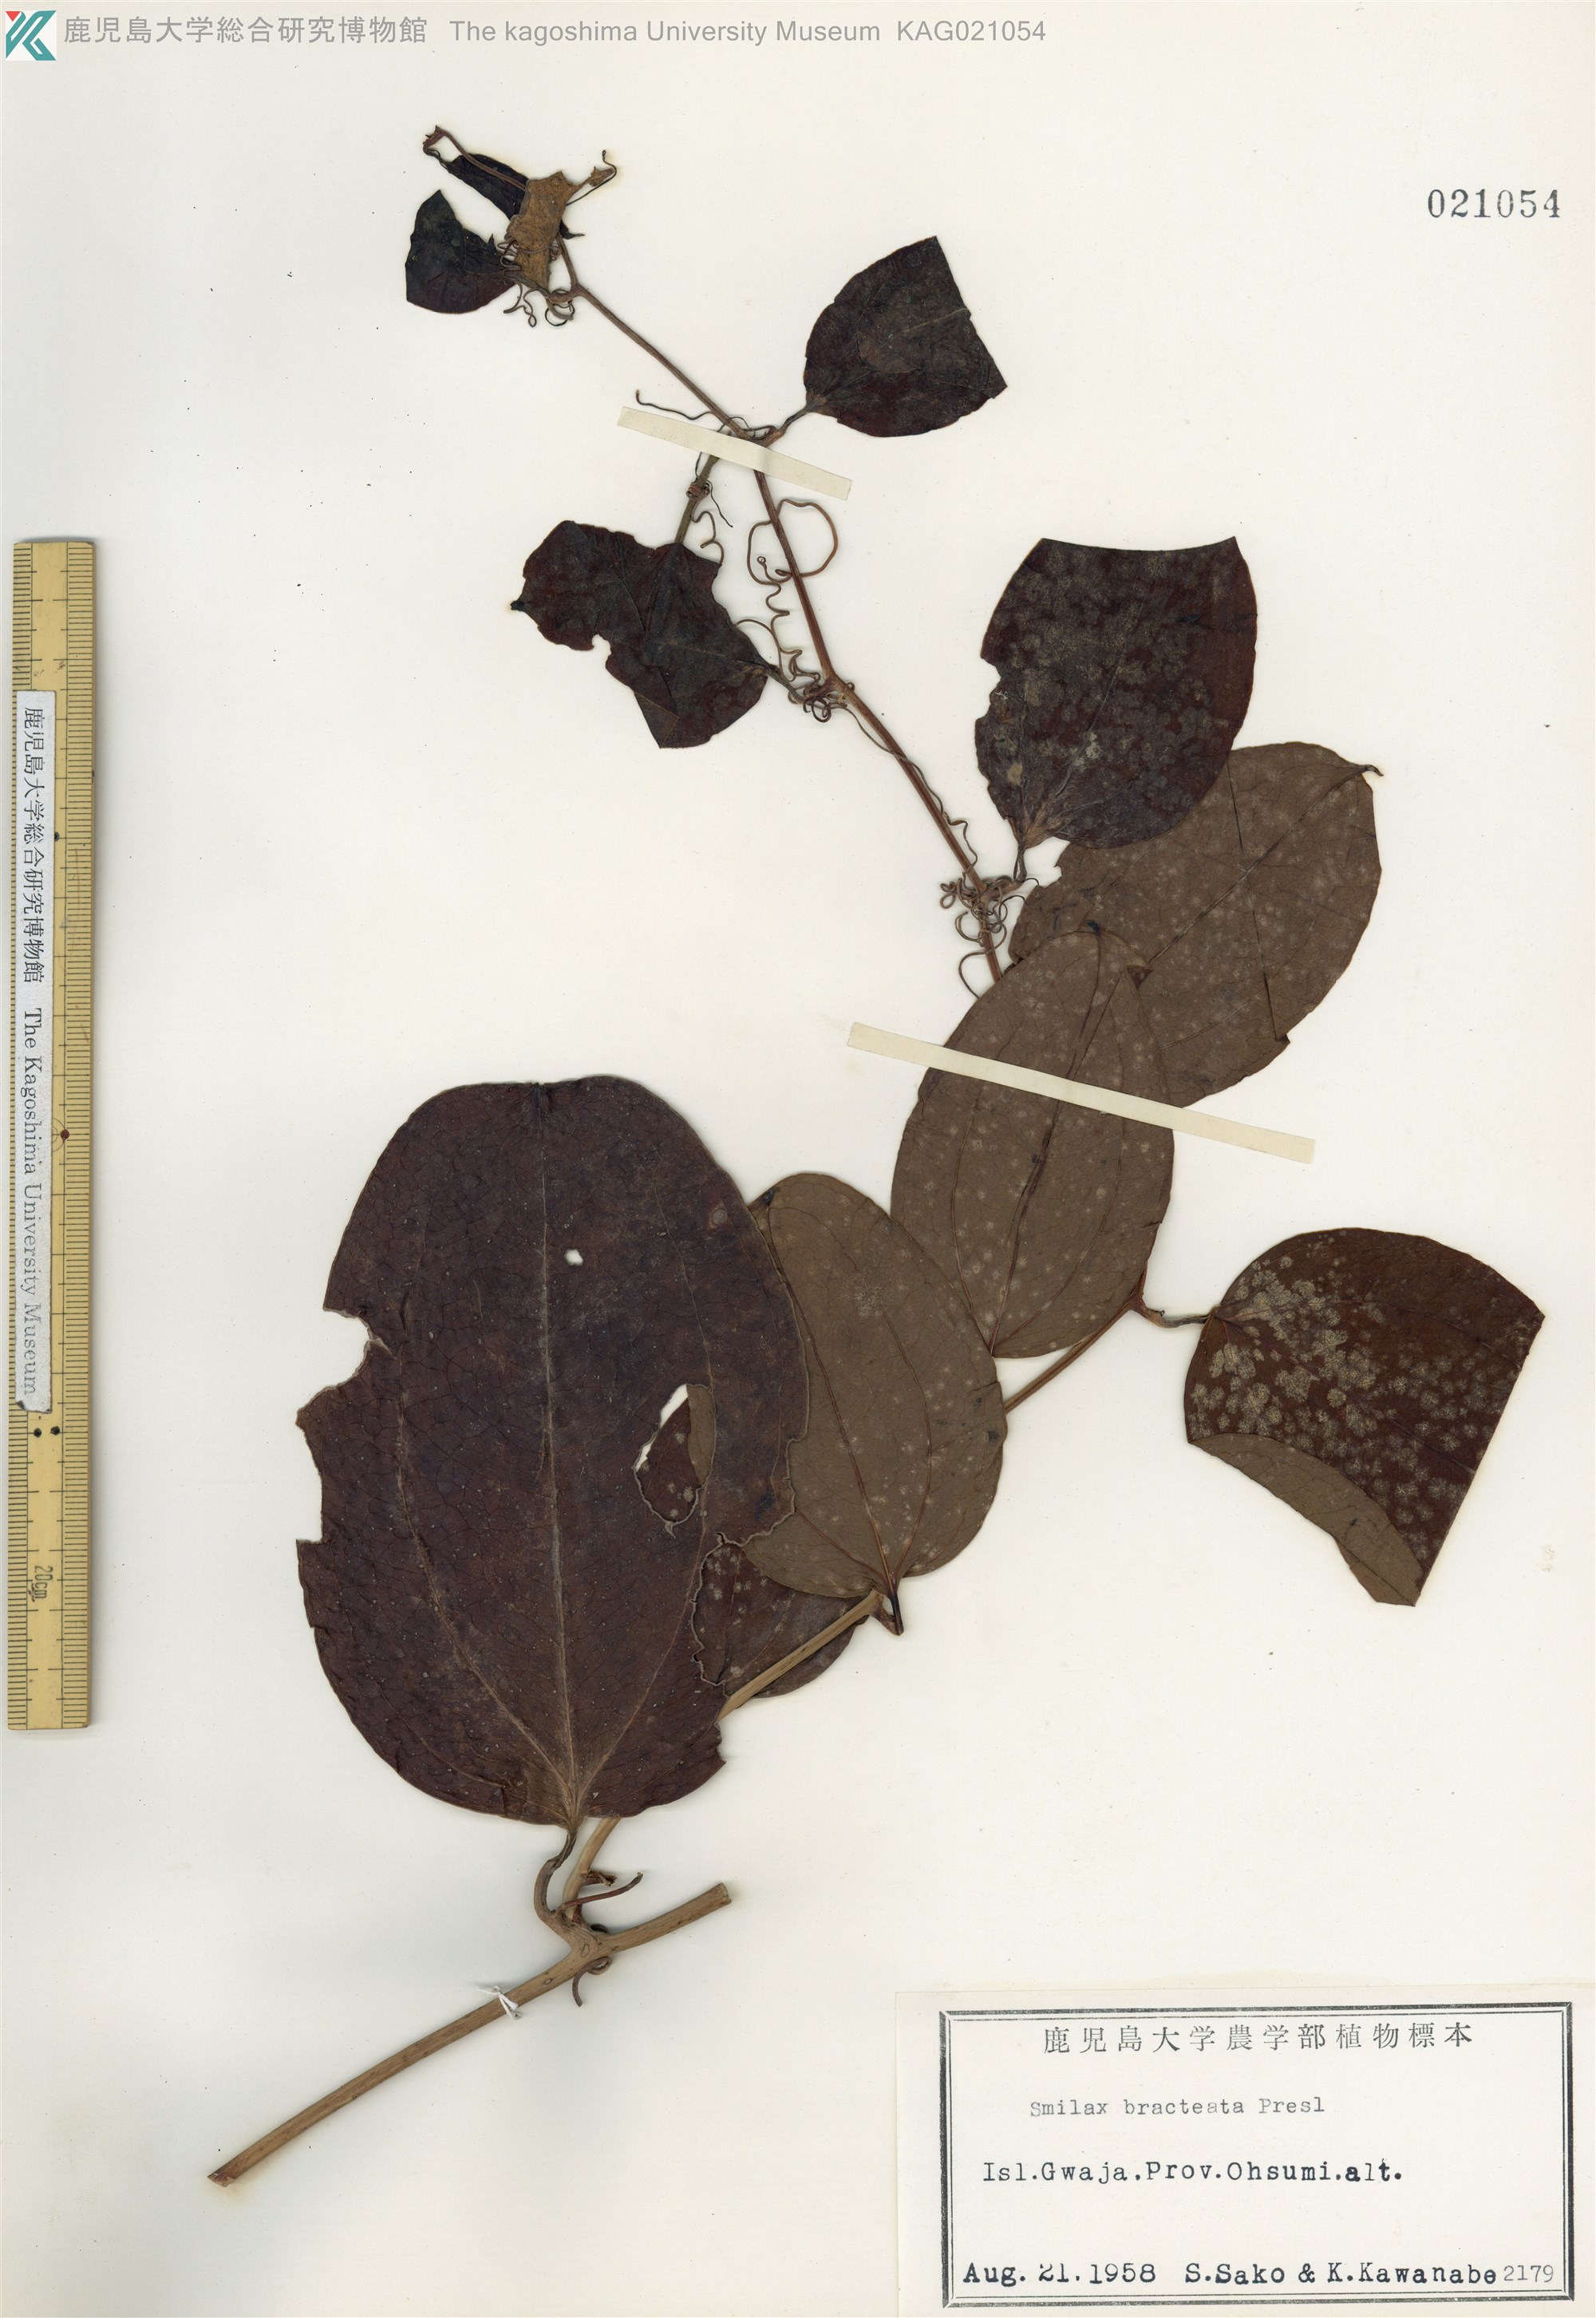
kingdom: Plantae
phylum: Tracheophyta
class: Liliopsida
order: Liliales
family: Smilacaceae
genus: Smilax
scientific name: Smilax bracteata
